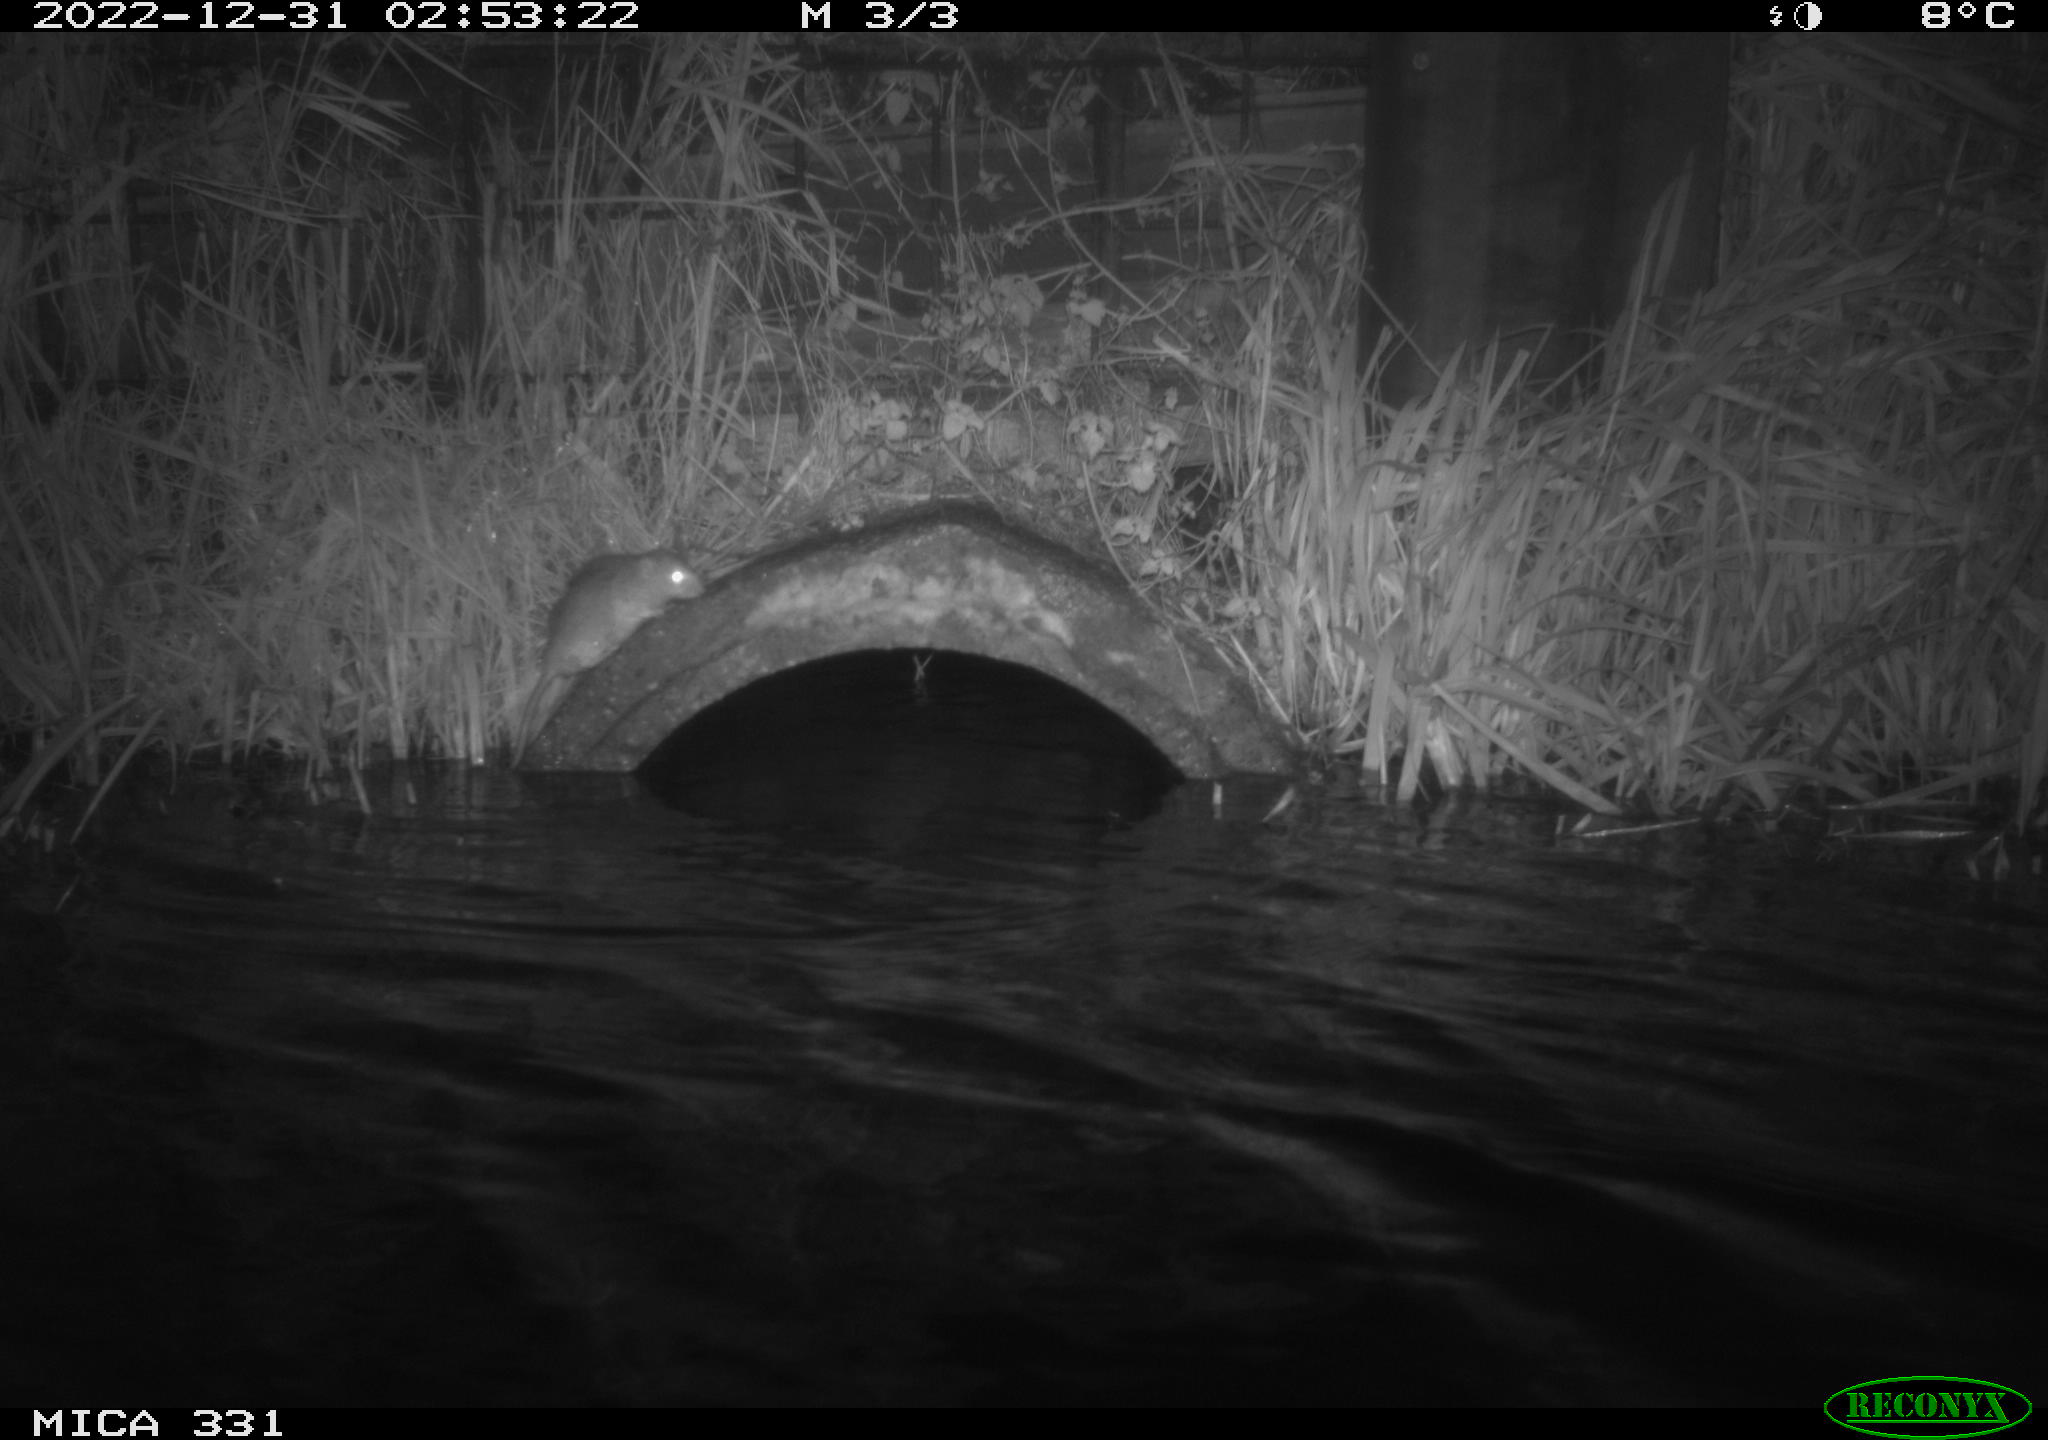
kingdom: Animalia
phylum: Chordata
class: Mammalia
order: Rodentia
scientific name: Rodentia
